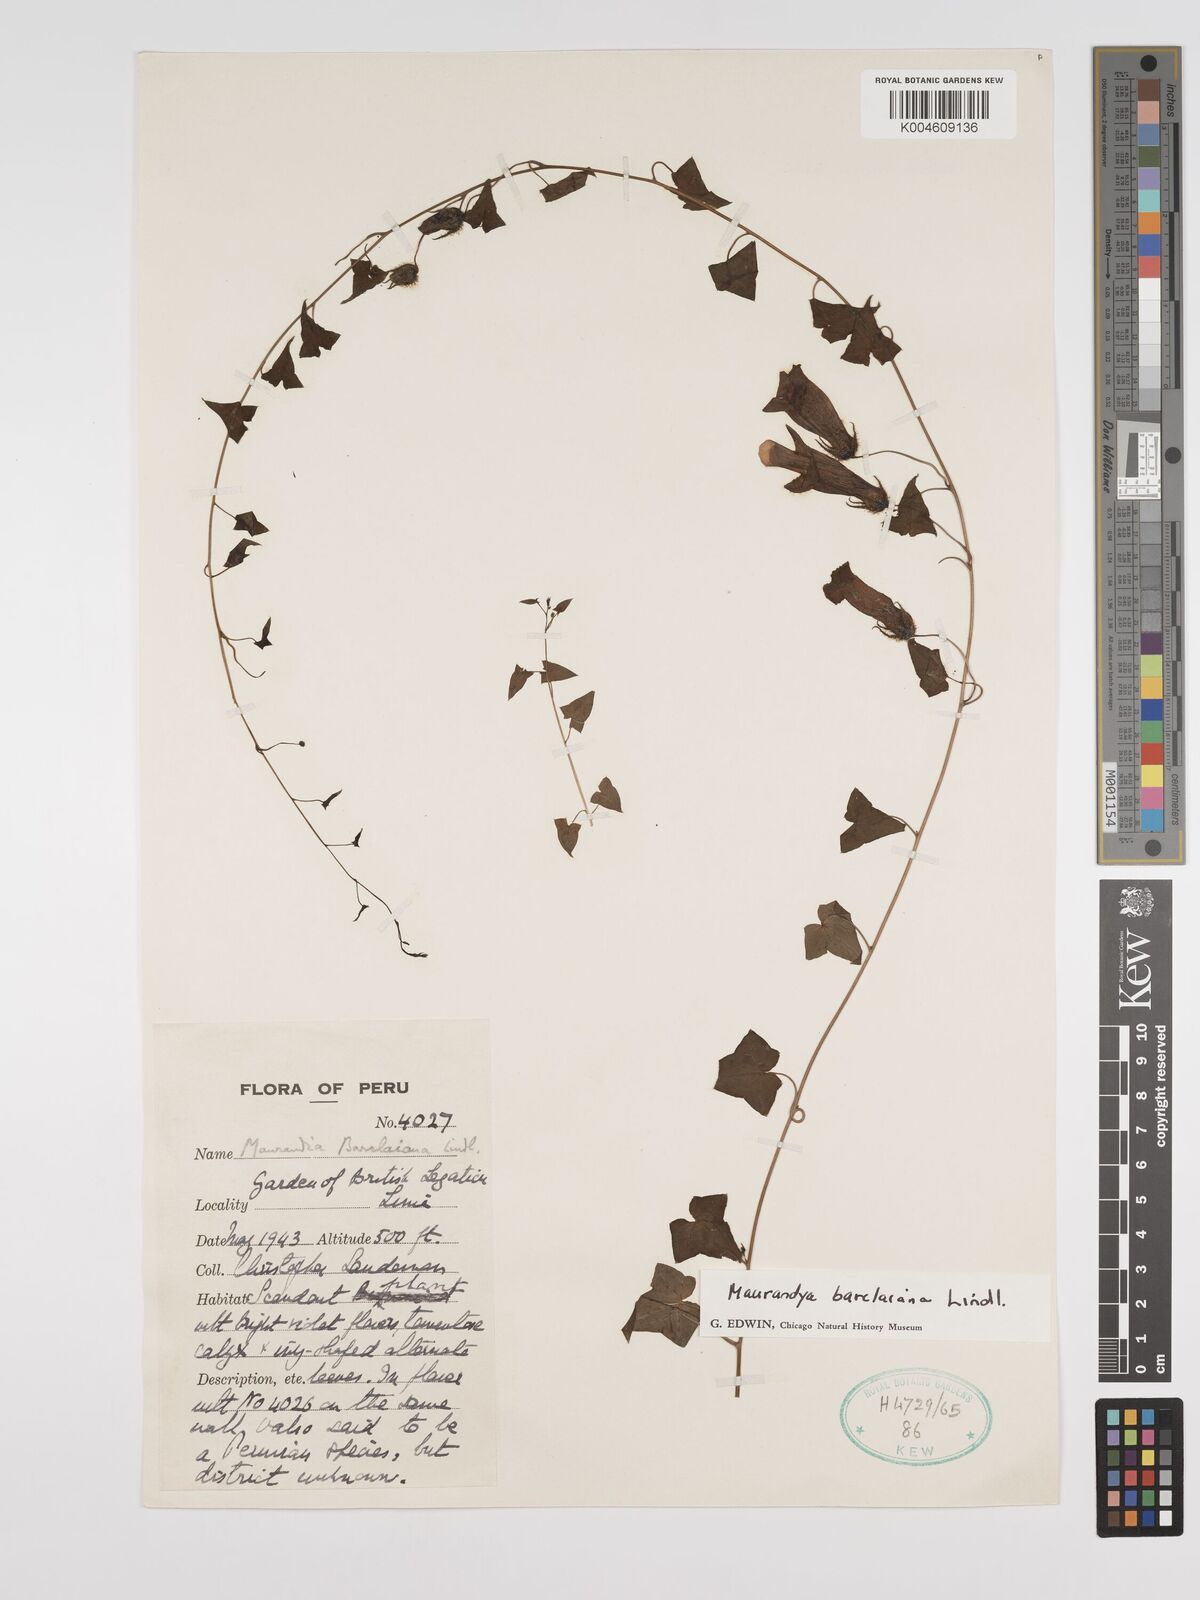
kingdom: Plantae
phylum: Tracheophyta
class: Magnoliopsida
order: Lamiales
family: Plantaginaceae
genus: Maurandya
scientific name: Maurandya barclayana
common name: Mexican viper
